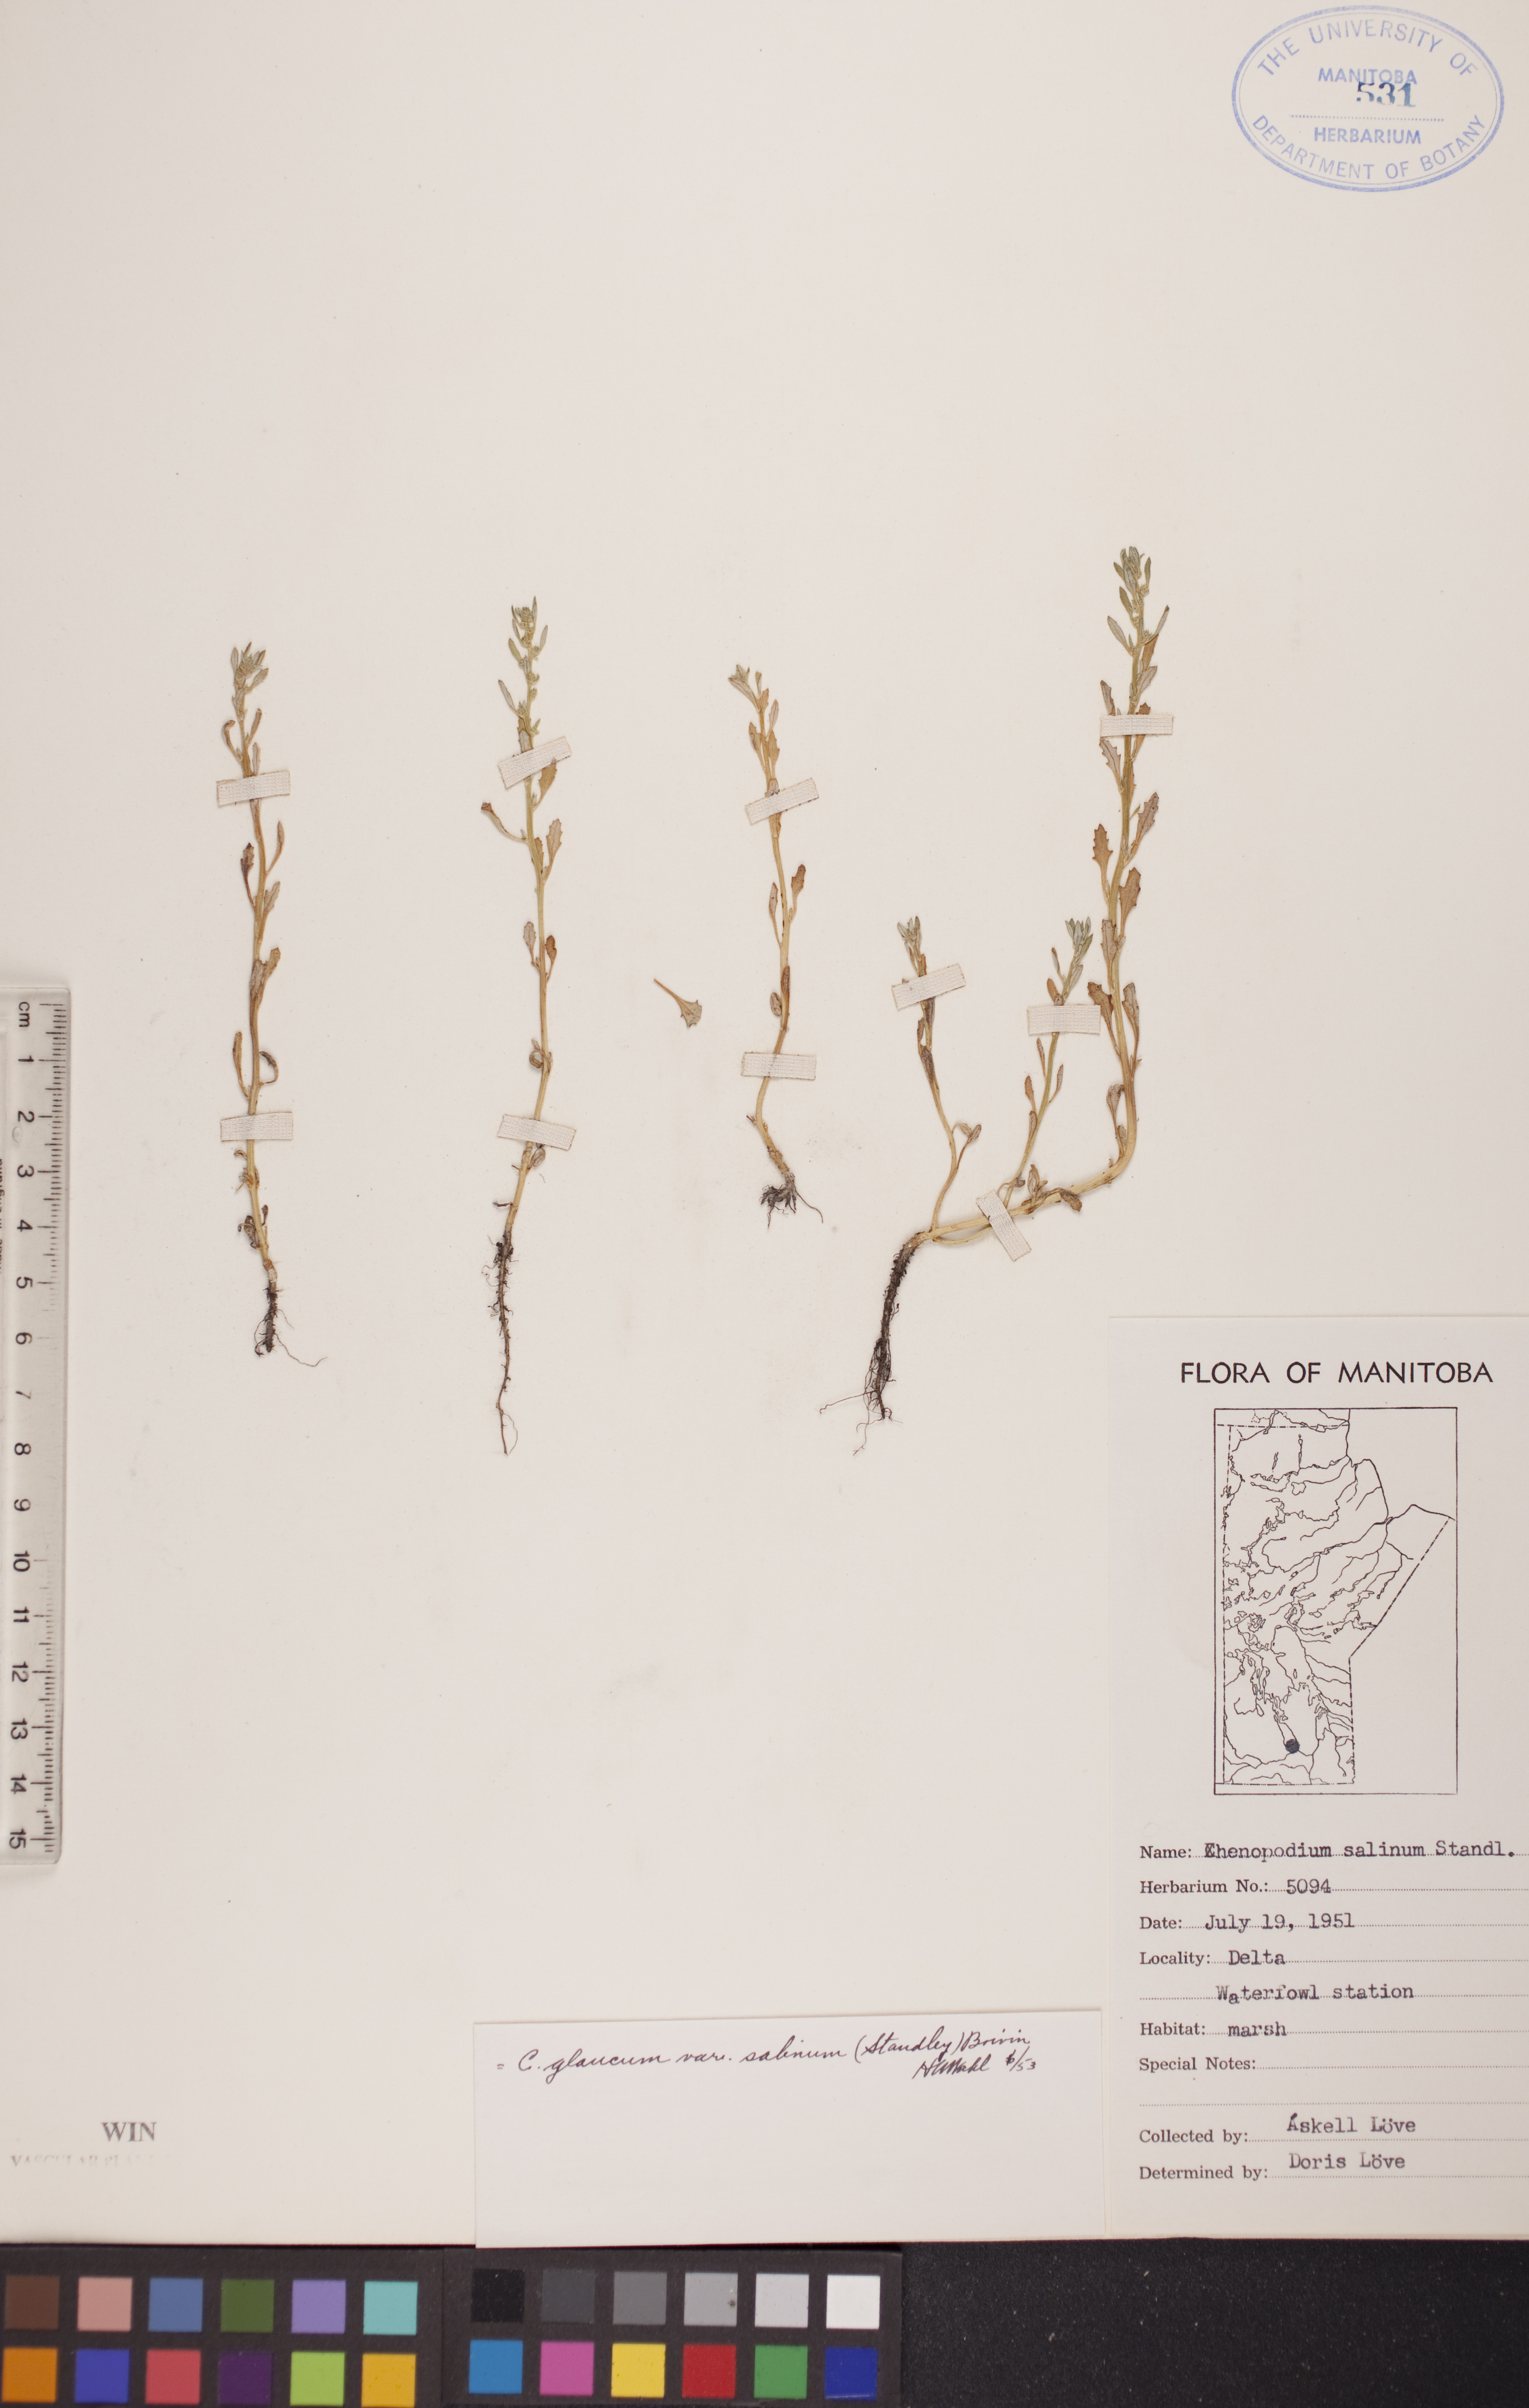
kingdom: Plantae
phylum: Tracheophyta
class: Magnoliopsida
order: Caryophyllales
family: Amaranthaceae
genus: Oxybasis
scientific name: Oxybasis salina
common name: Rocky mountain goosefoot
